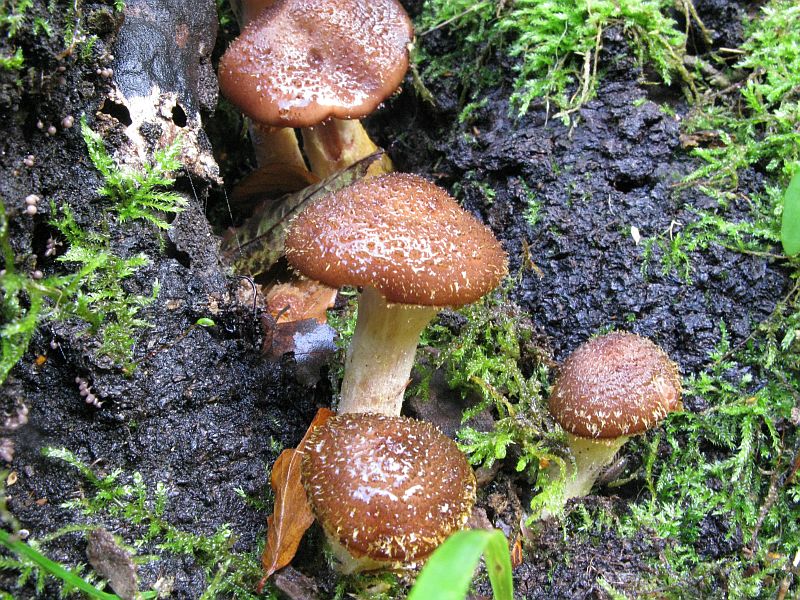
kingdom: Fungi
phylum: Basidiomycota
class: Agaricomycetes
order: Agaricales
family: Physalacriaceae
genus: Armillaria
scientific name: Armillaria lutea
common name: køllestokket honningsvamp
